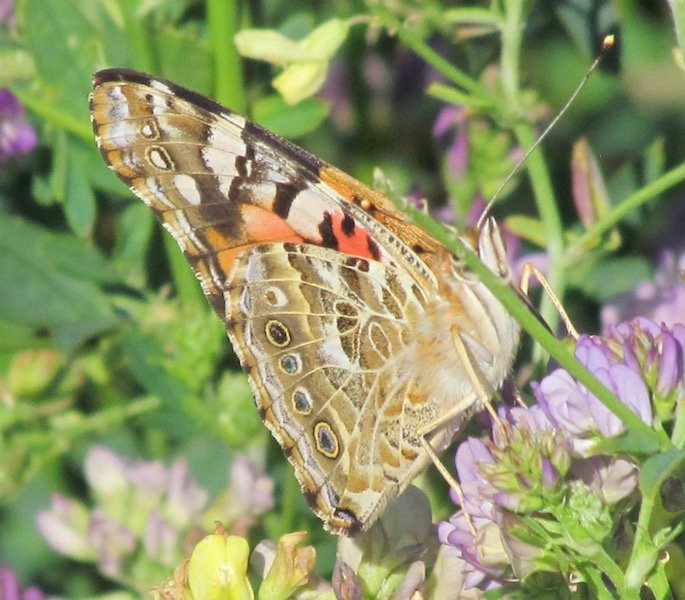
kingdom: Animalia
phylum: Arthropoda
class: Insecta
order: Lepidoptera
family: Nymphalidae
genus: Vanessa
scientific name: Vanessa cardui
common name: Painted Lady
